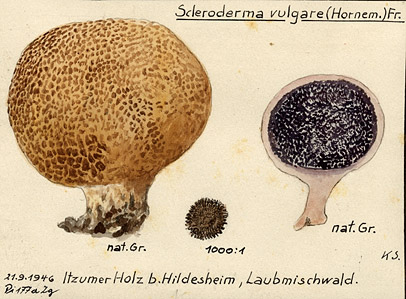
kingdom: Fungi
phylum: Basidiomycota
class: Agaricomycetes
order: Boletales
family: Sclerodermataceae
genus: Scleroderma
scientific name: Scleroderma citrinum
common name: Common earthball
